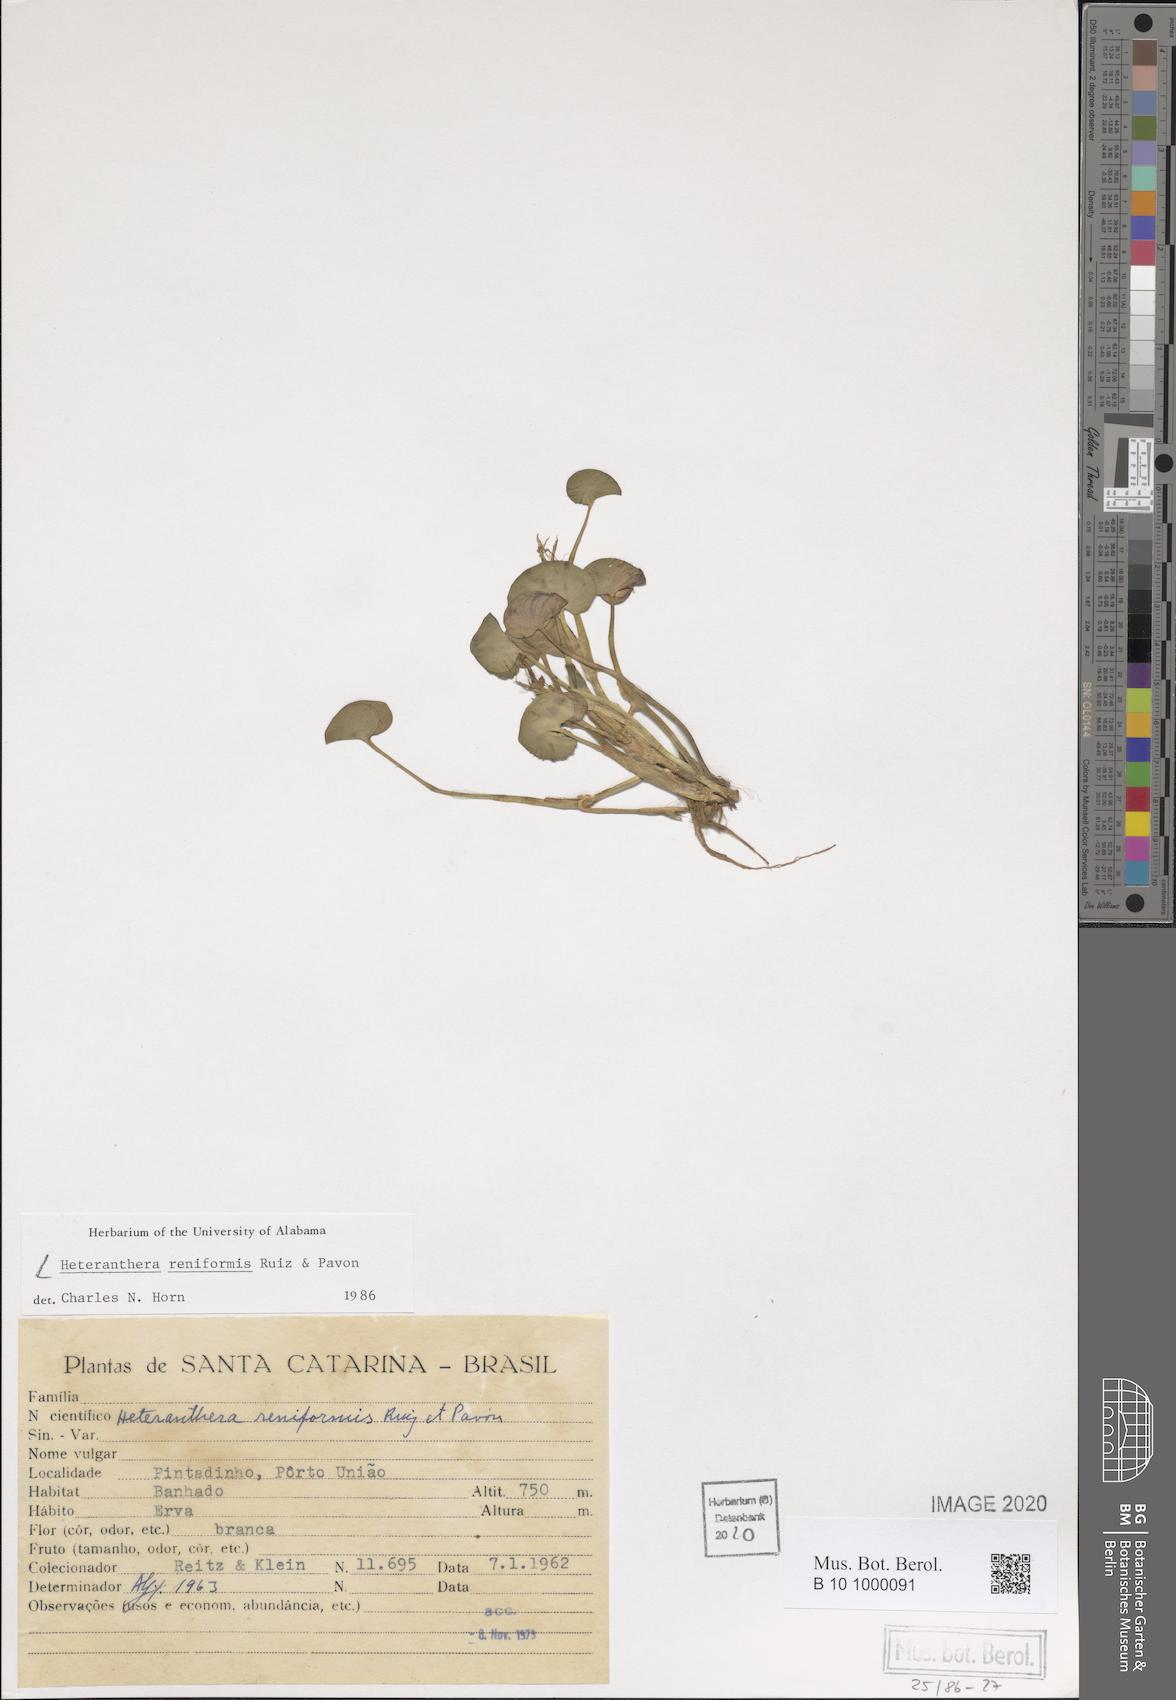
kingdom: Plantae
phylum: Tracheophyta
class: Liliopsida
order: Commelinales
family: Pontederiaceae
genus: Heteranthera
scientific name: Heteranthera reniformis
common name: Kidneyleaf mudplantain
